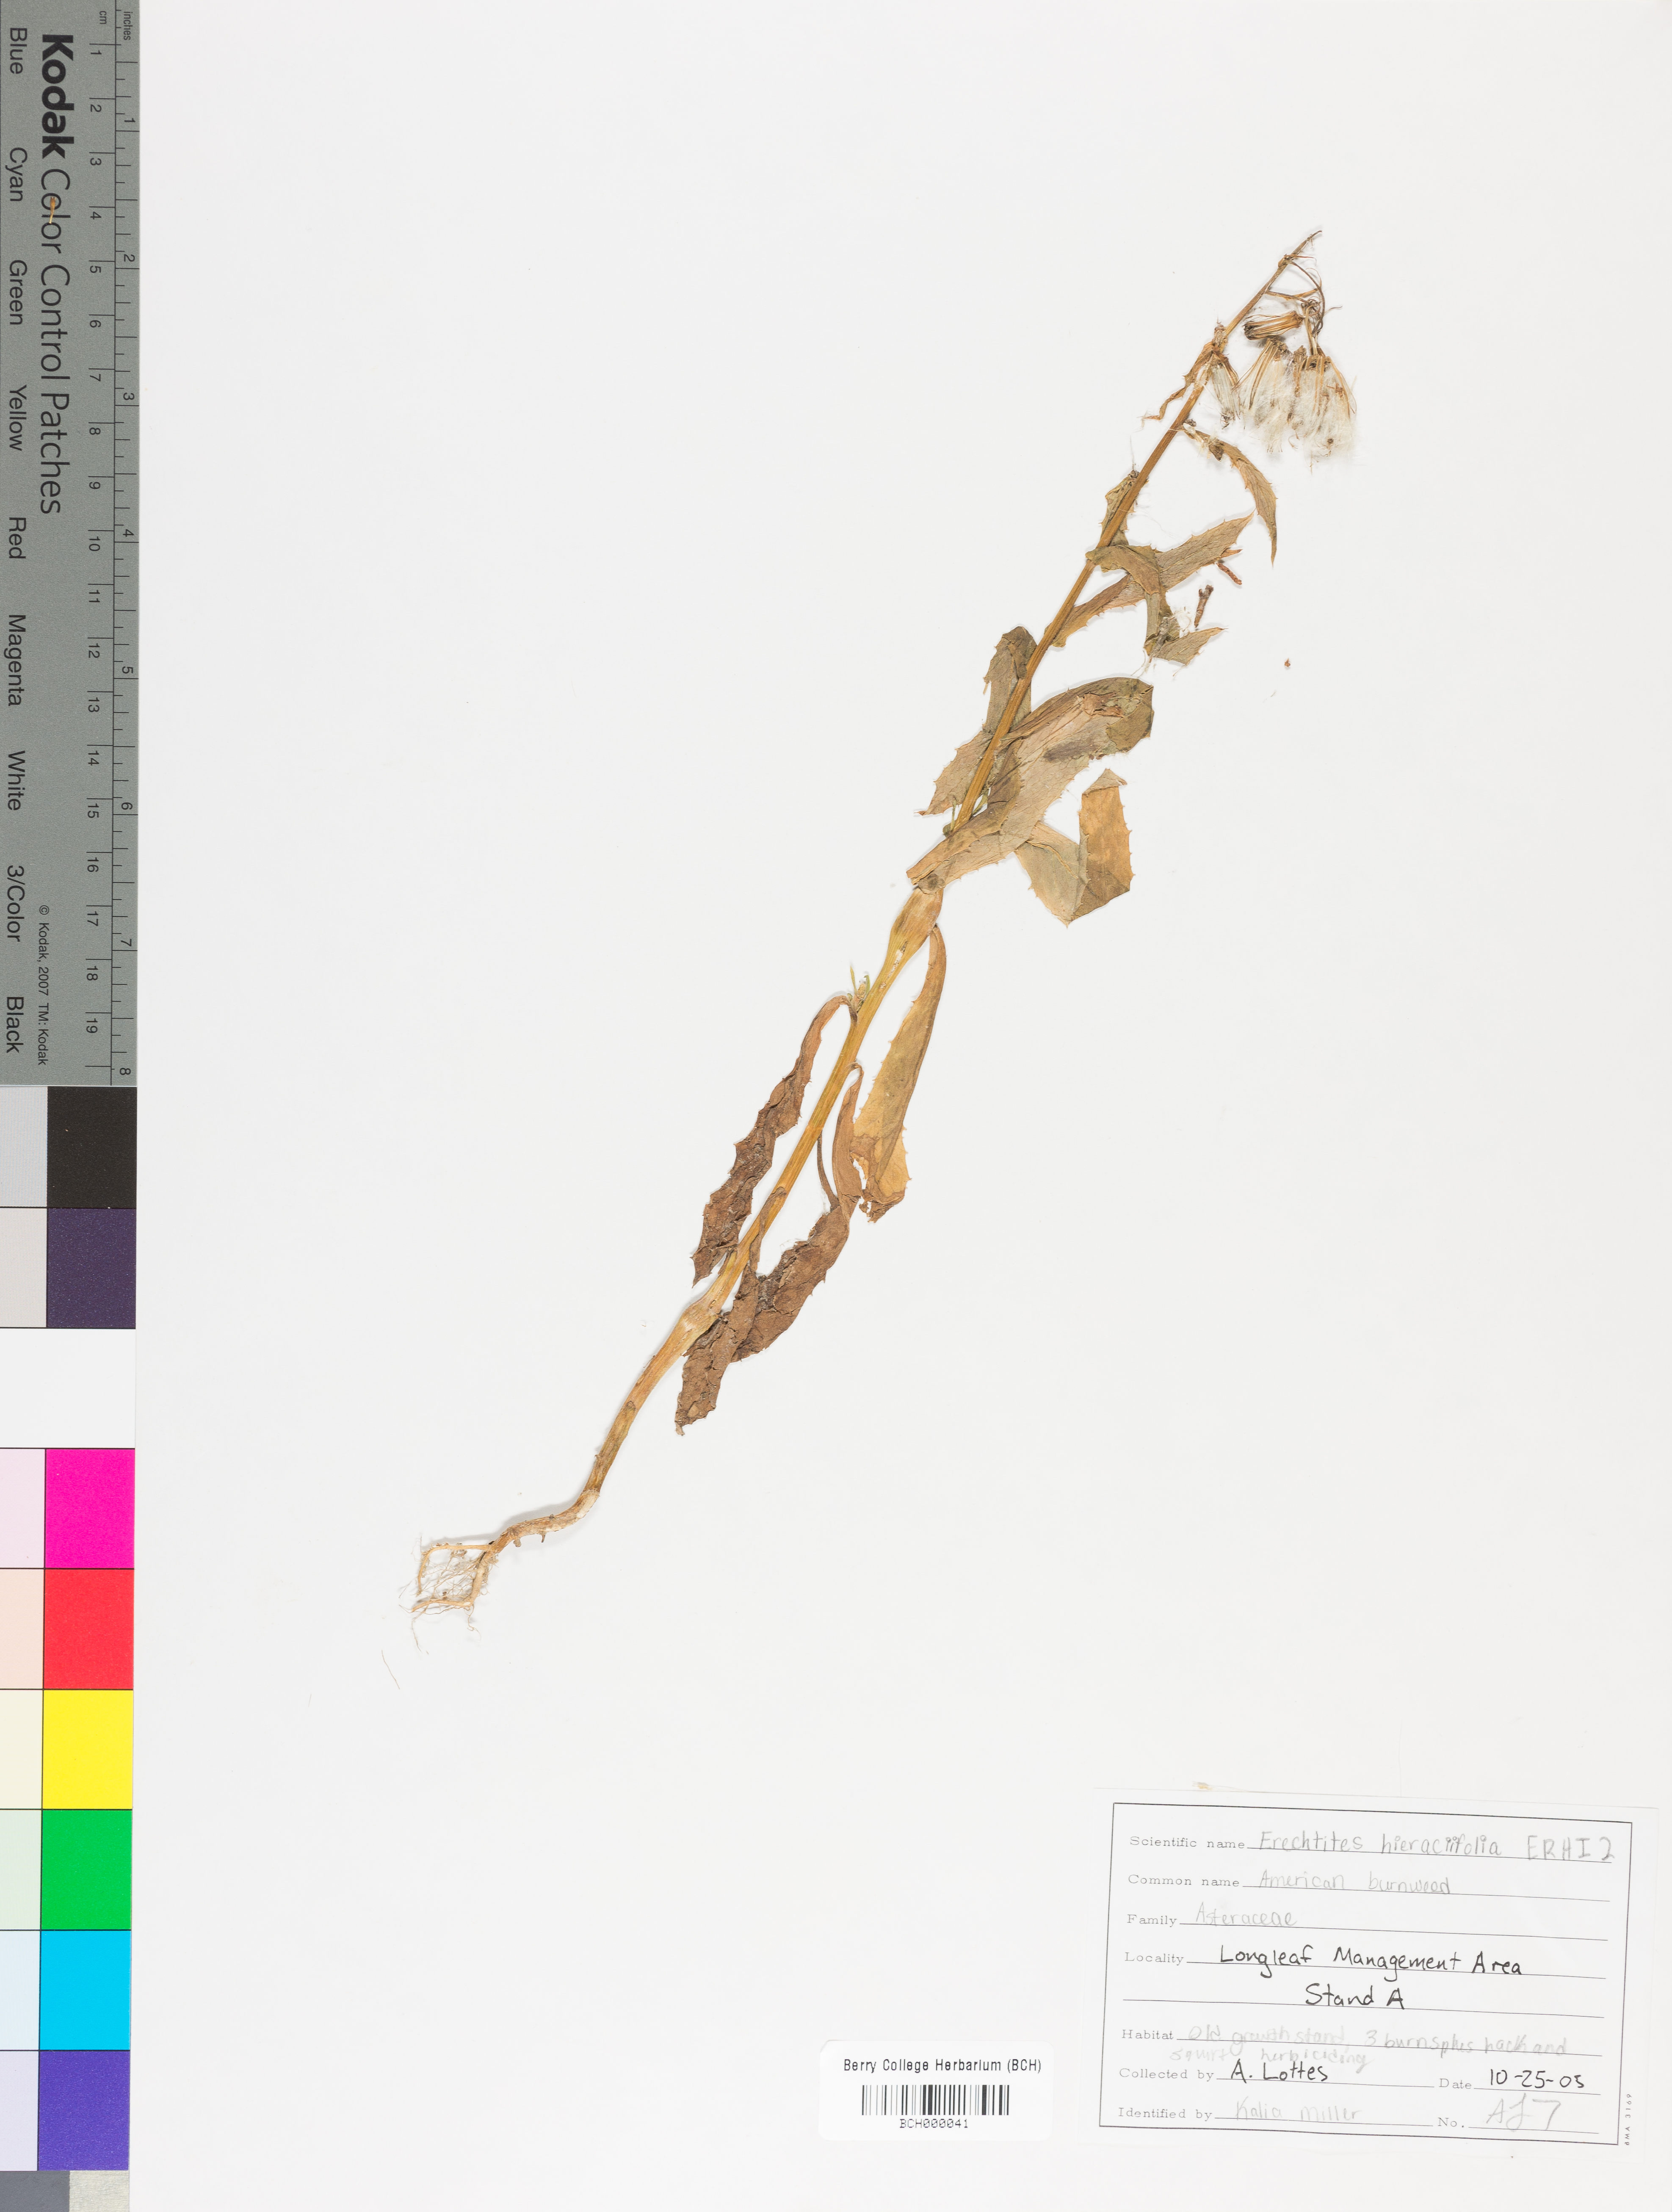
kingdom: Plantae
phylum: Tracheophyta
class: Magnoliopsida
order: Asterales
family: Asteraceae
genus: Erechtites
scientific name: Erechtites hieraciifolius
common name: American burnweed
